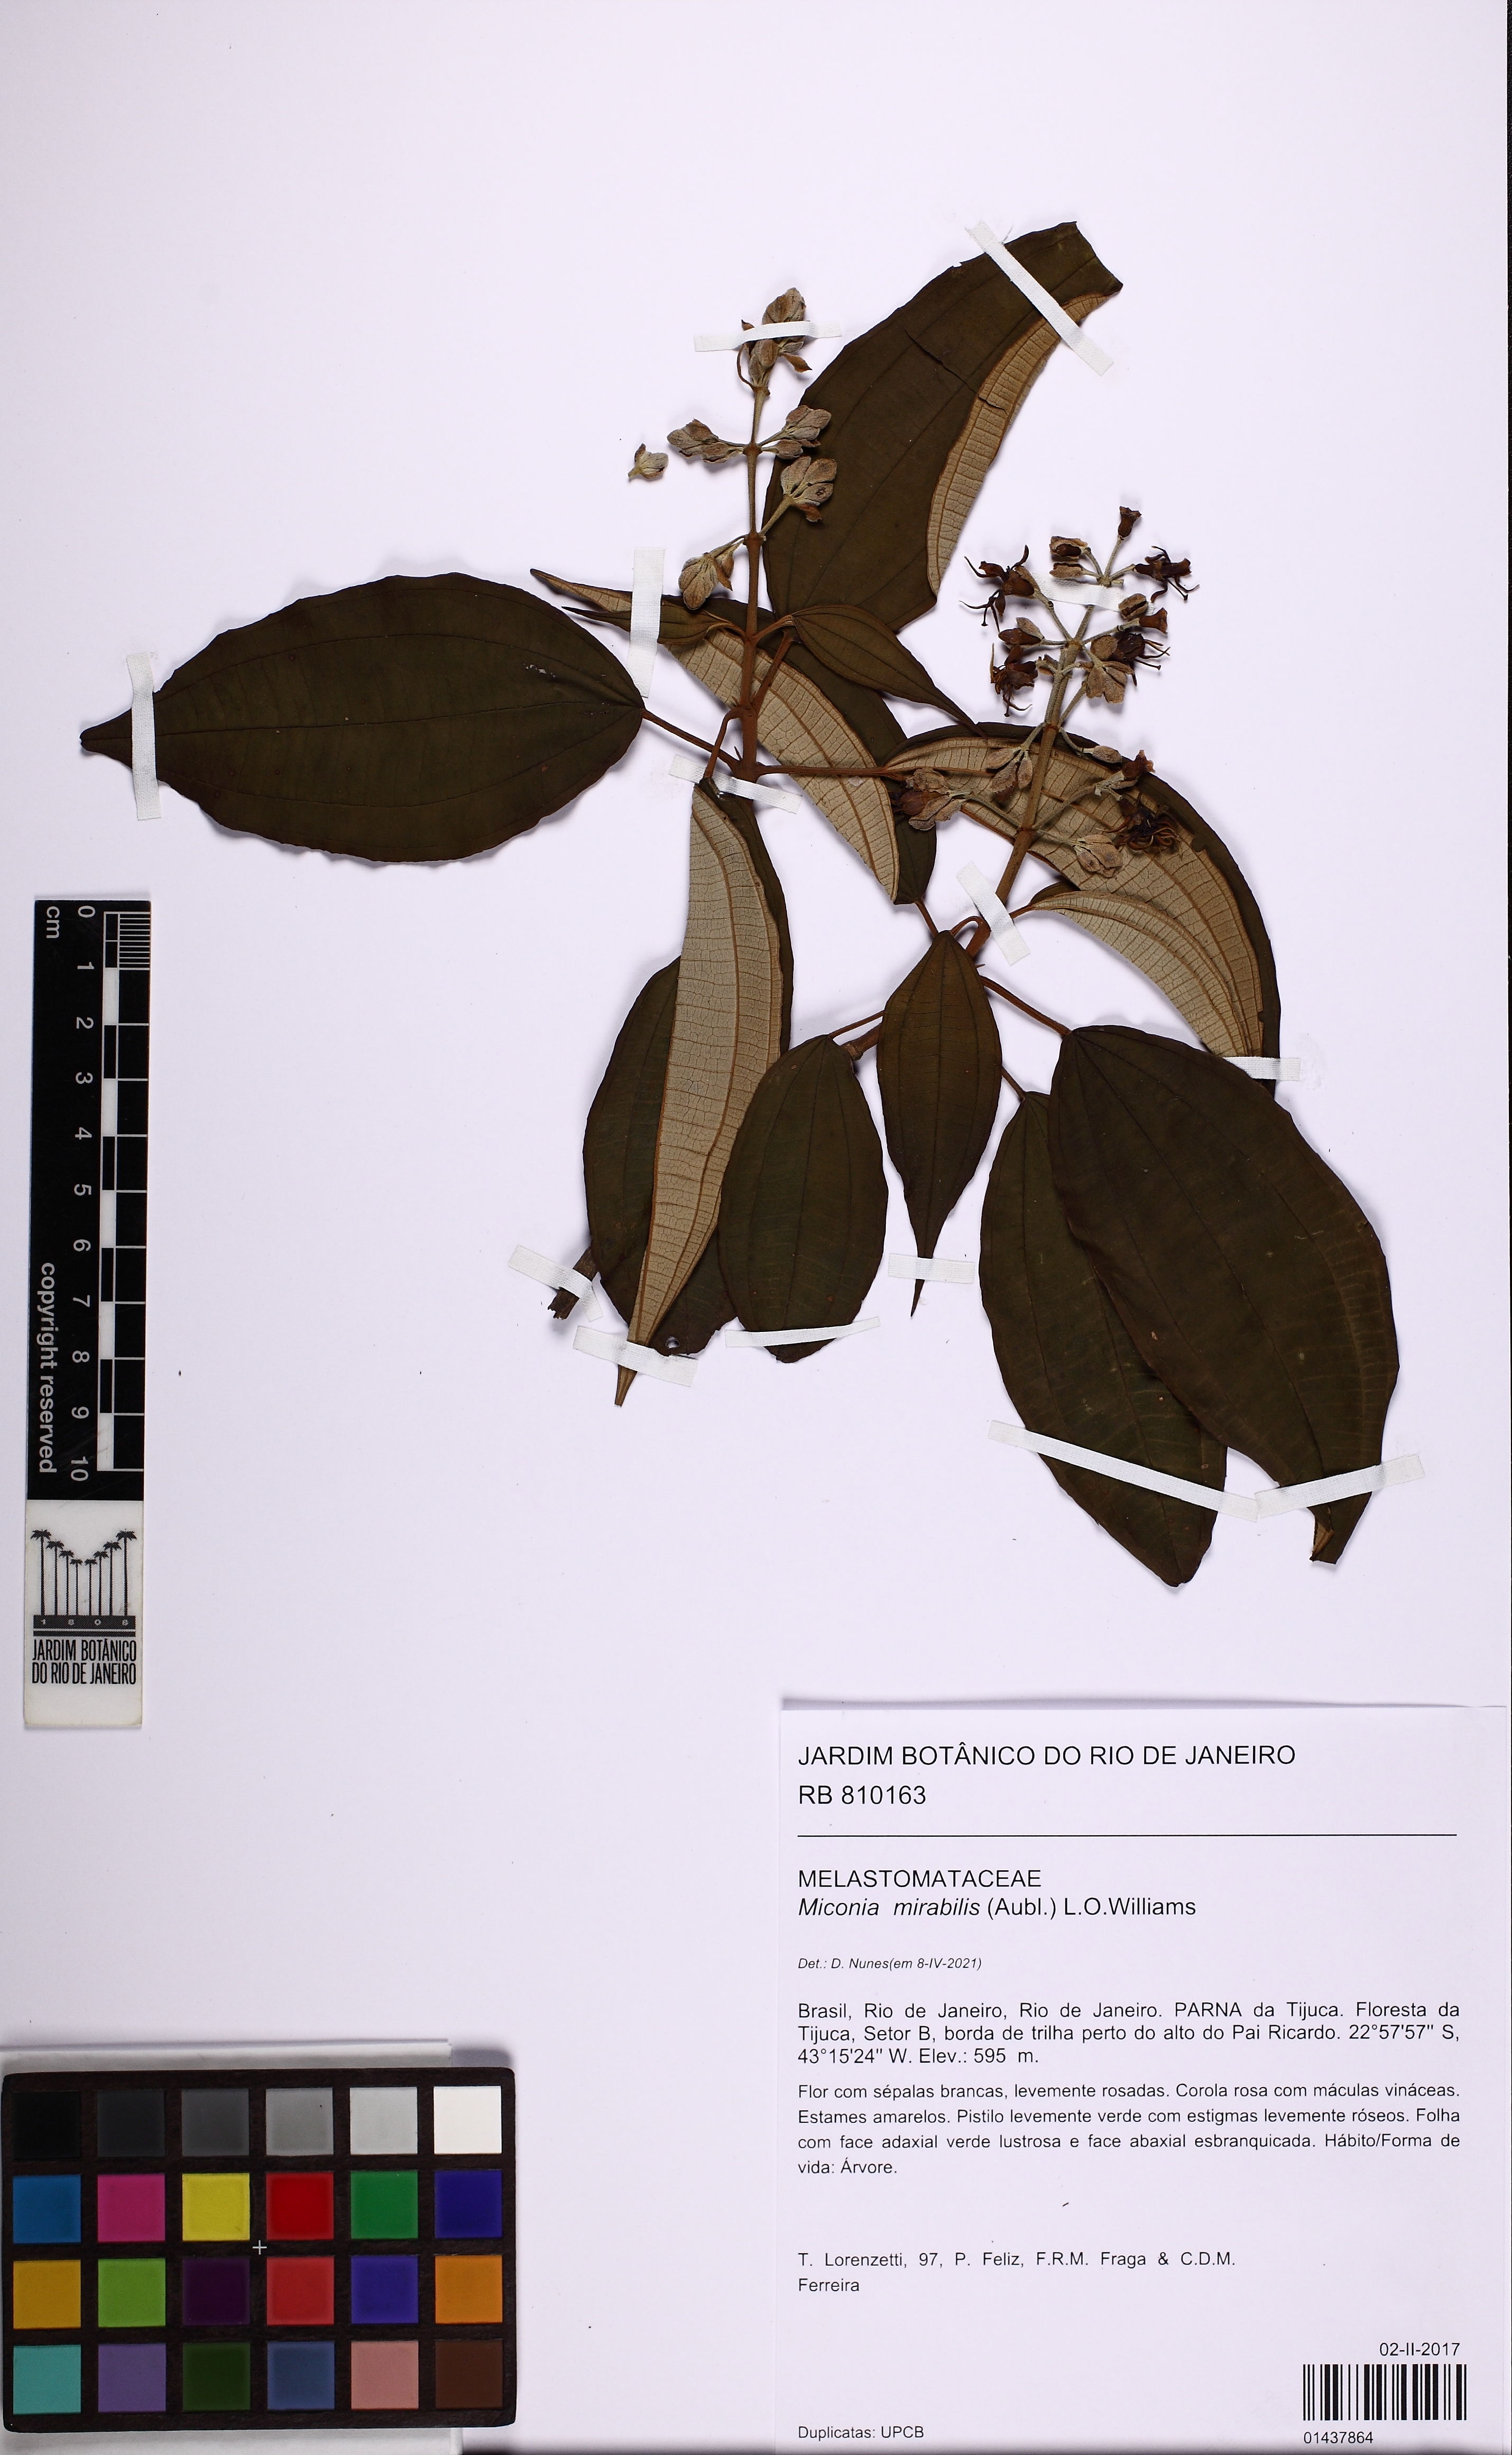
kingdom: Plantae
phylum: Tracheophyta
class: Magnoliopsida
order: Myrtales
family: Melastomataceae
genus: Miconia
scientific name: Miconia mirabilis
